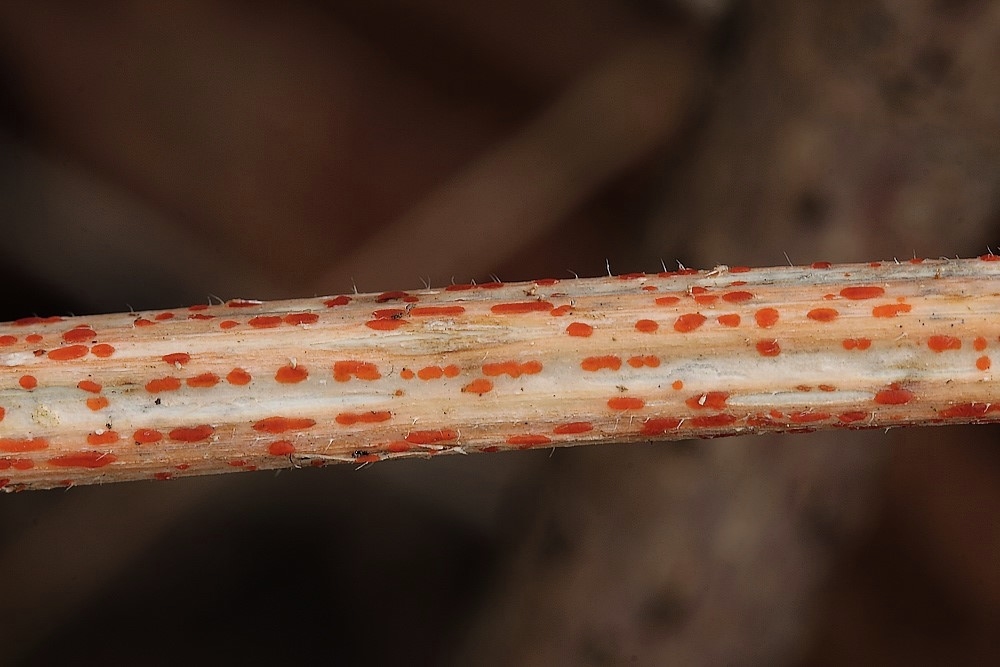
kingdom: Fungi
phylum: Ascomycota
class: Leotiomycetes
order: Helotiales
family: Calloriaceae
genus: Calloria
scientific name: Calloria urticae
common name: nælde-orangeskive
